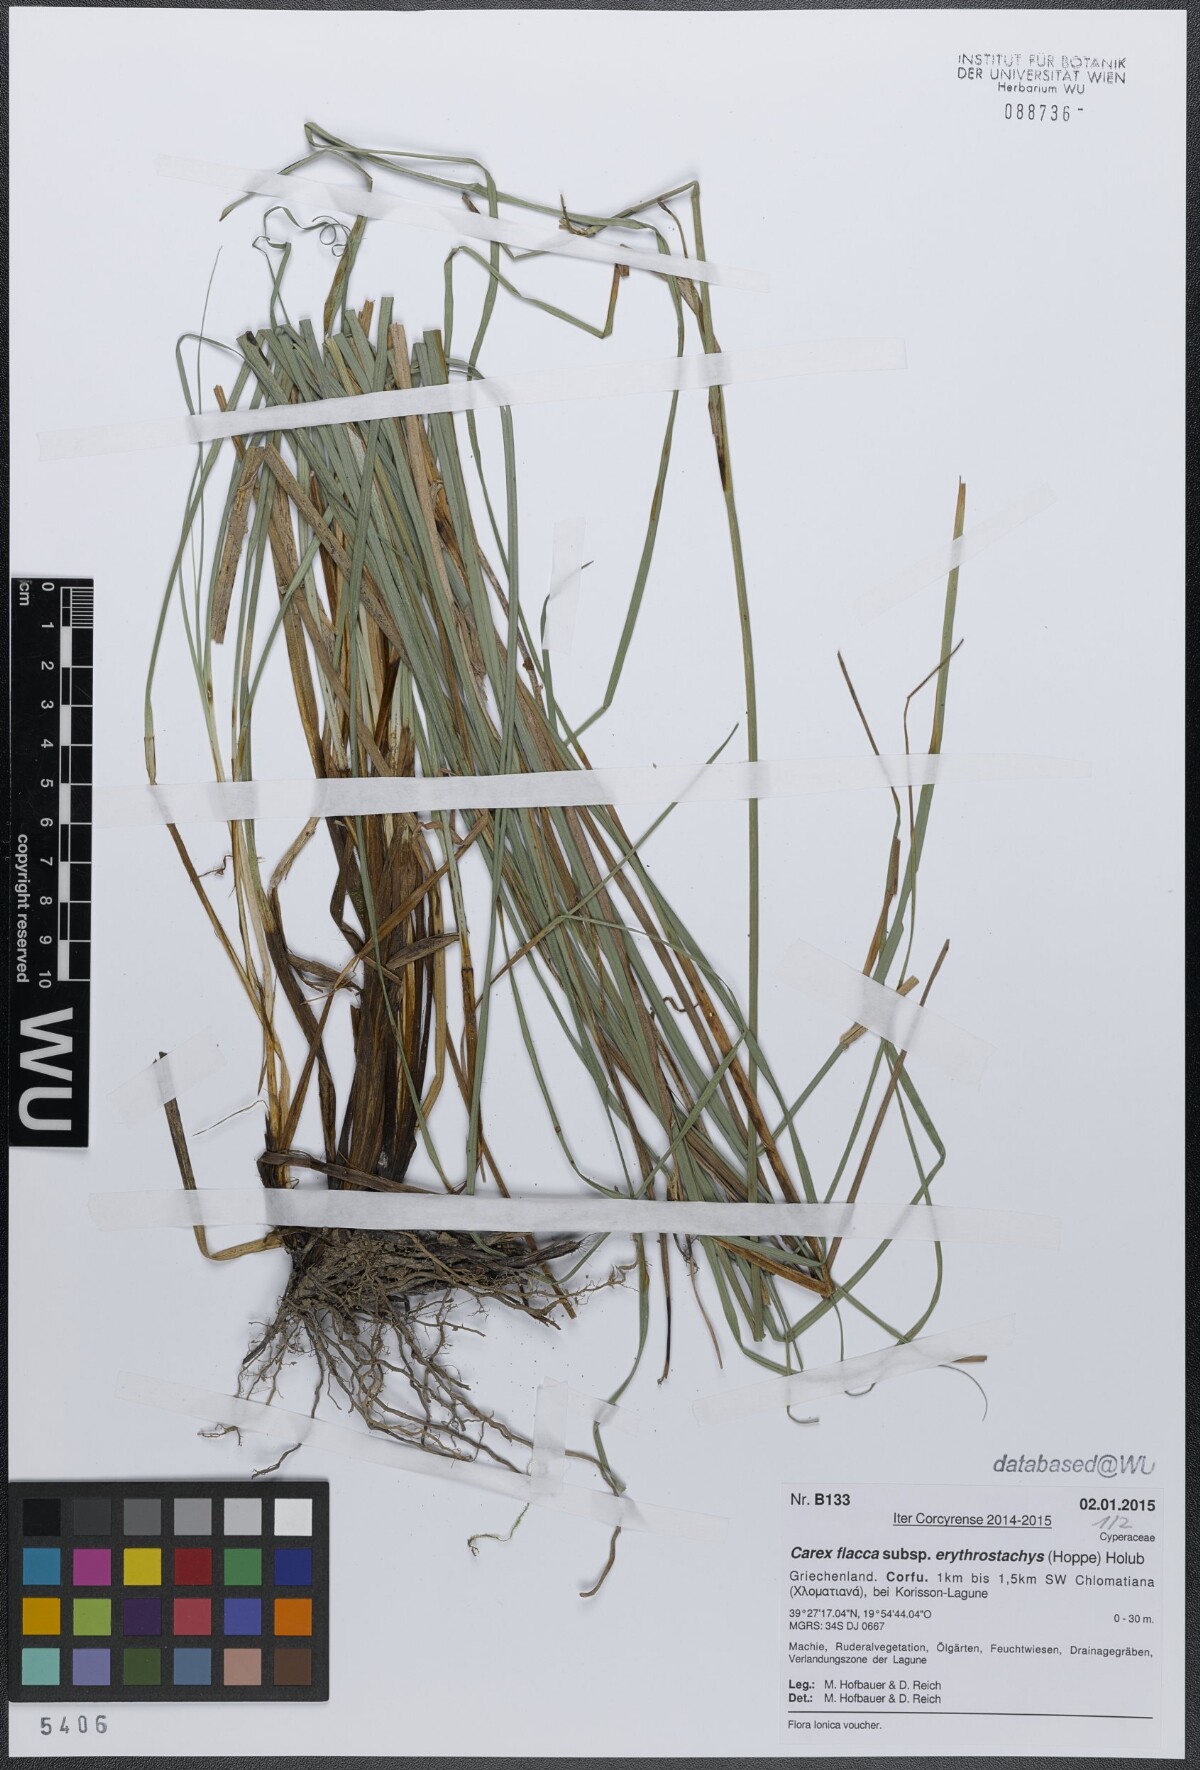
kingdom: Plantae
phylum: Tracheophyta
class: Liliopsida
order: Poales
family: Cyperaceae
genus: Carex
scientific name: Carex flacca
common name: Glaucous sedge
